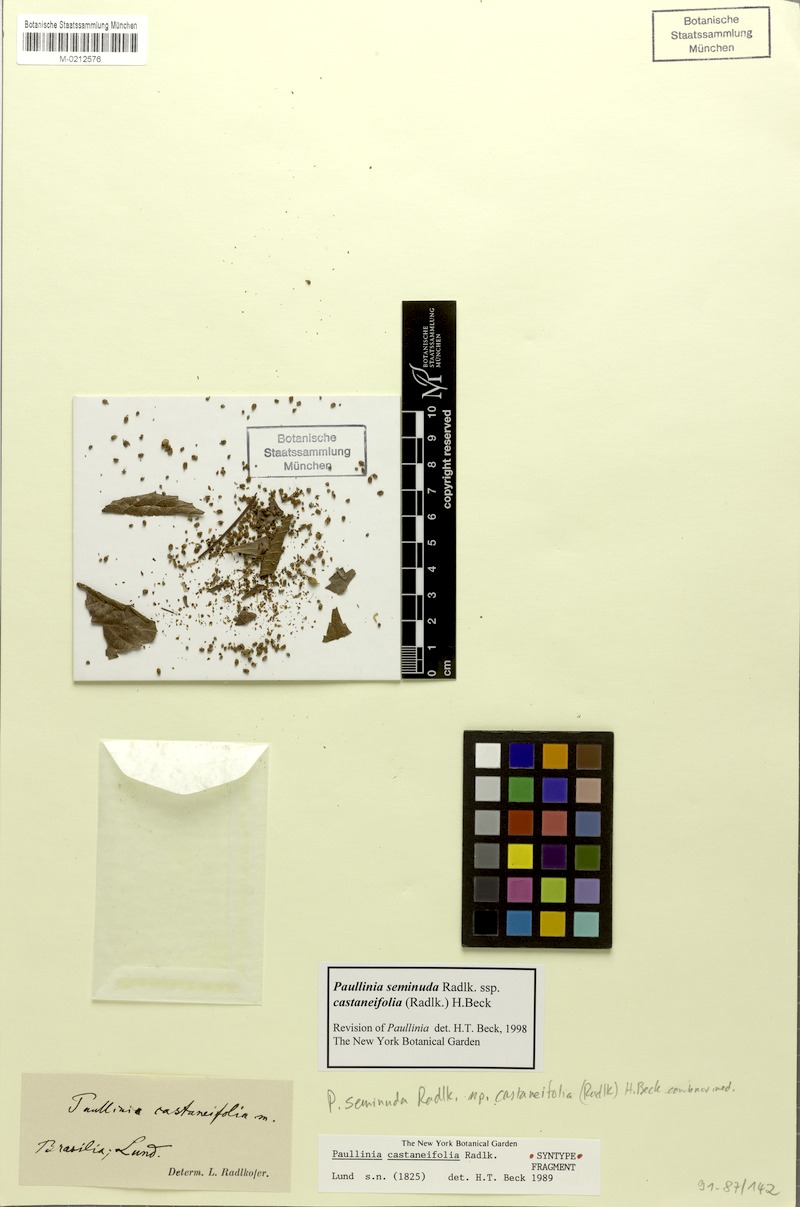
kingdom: Plantae
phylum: Tracheophyta
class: Magnoliopsida
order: Sapindales
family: Sapindaceae
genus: Paullinia
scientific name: Paullinia seminuda
